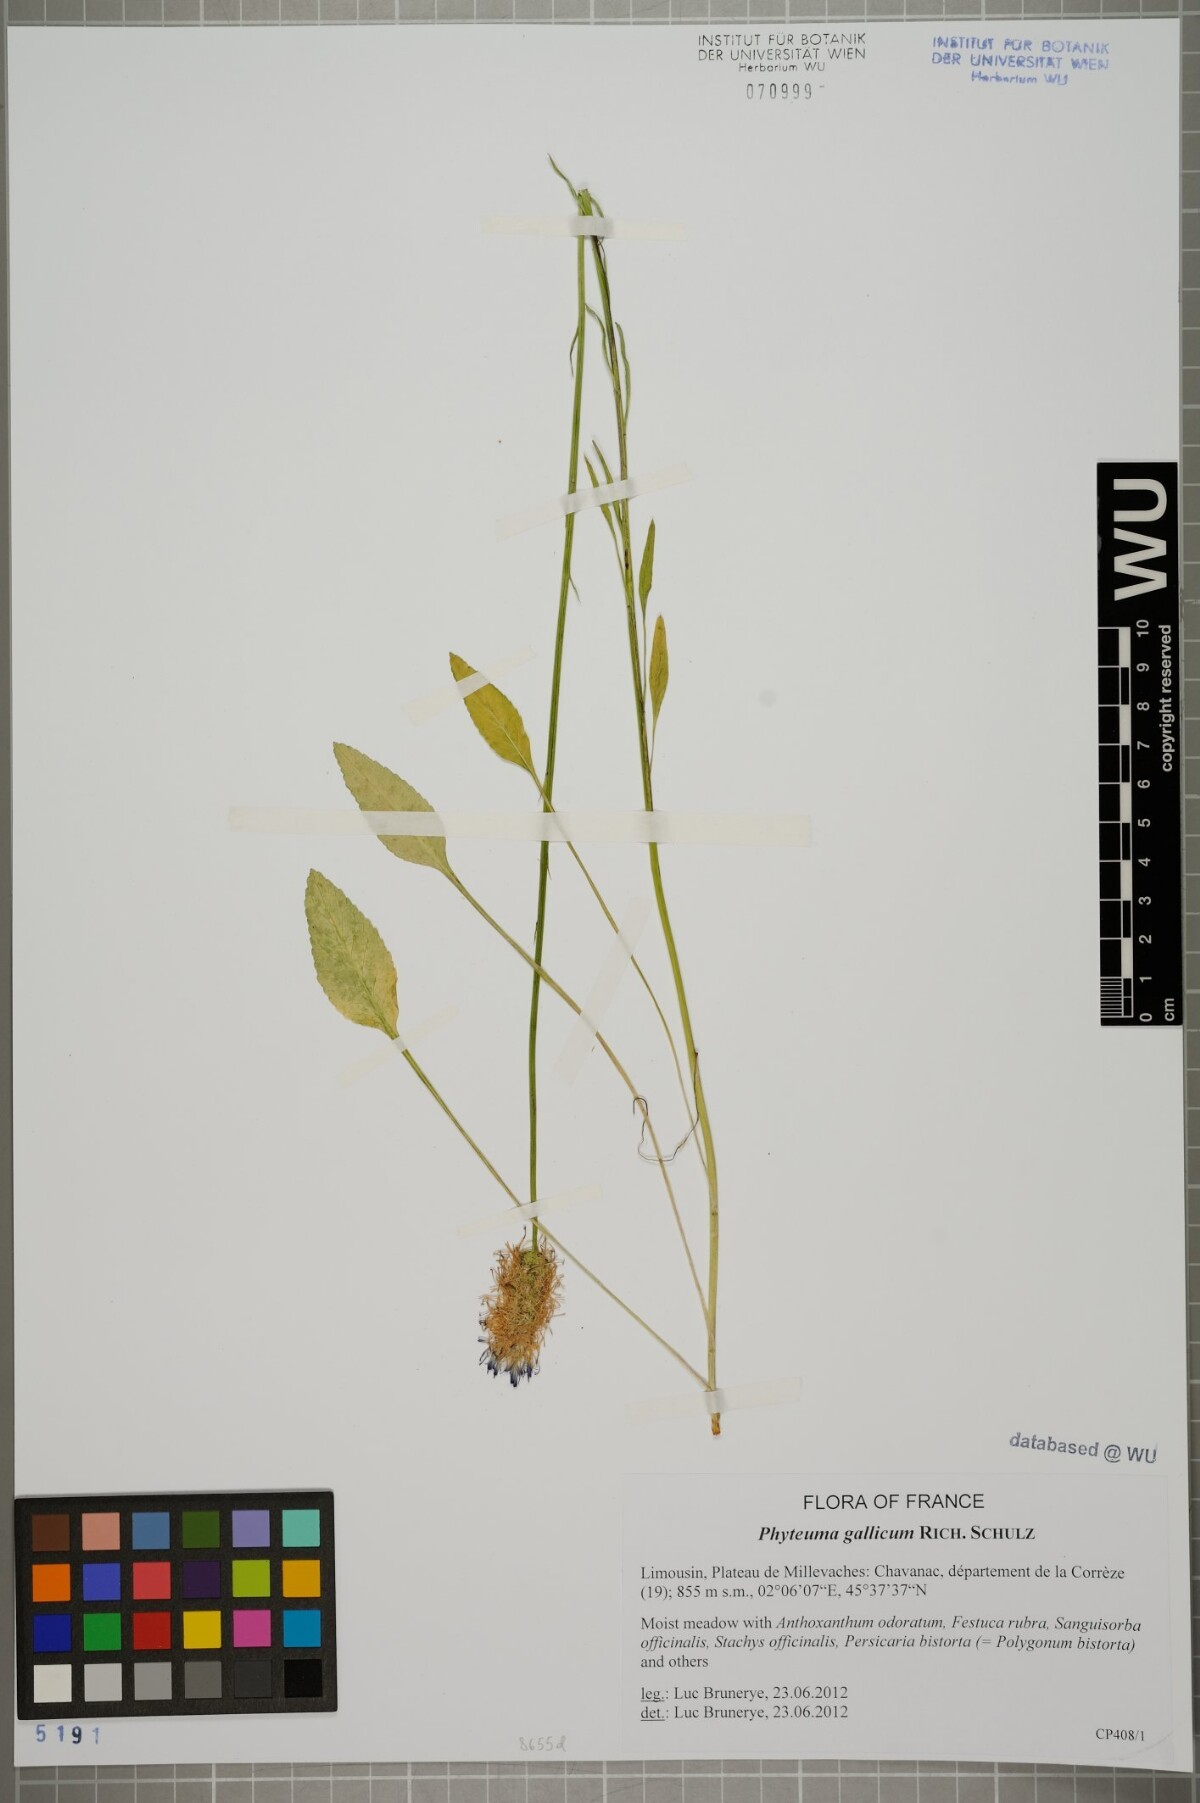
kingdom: Plantae
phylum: Tracheophyta
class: Magnoliopsida
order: Asterales
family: Campanulaceae
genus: Phyteuma
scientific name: Phyteuma gallicum
